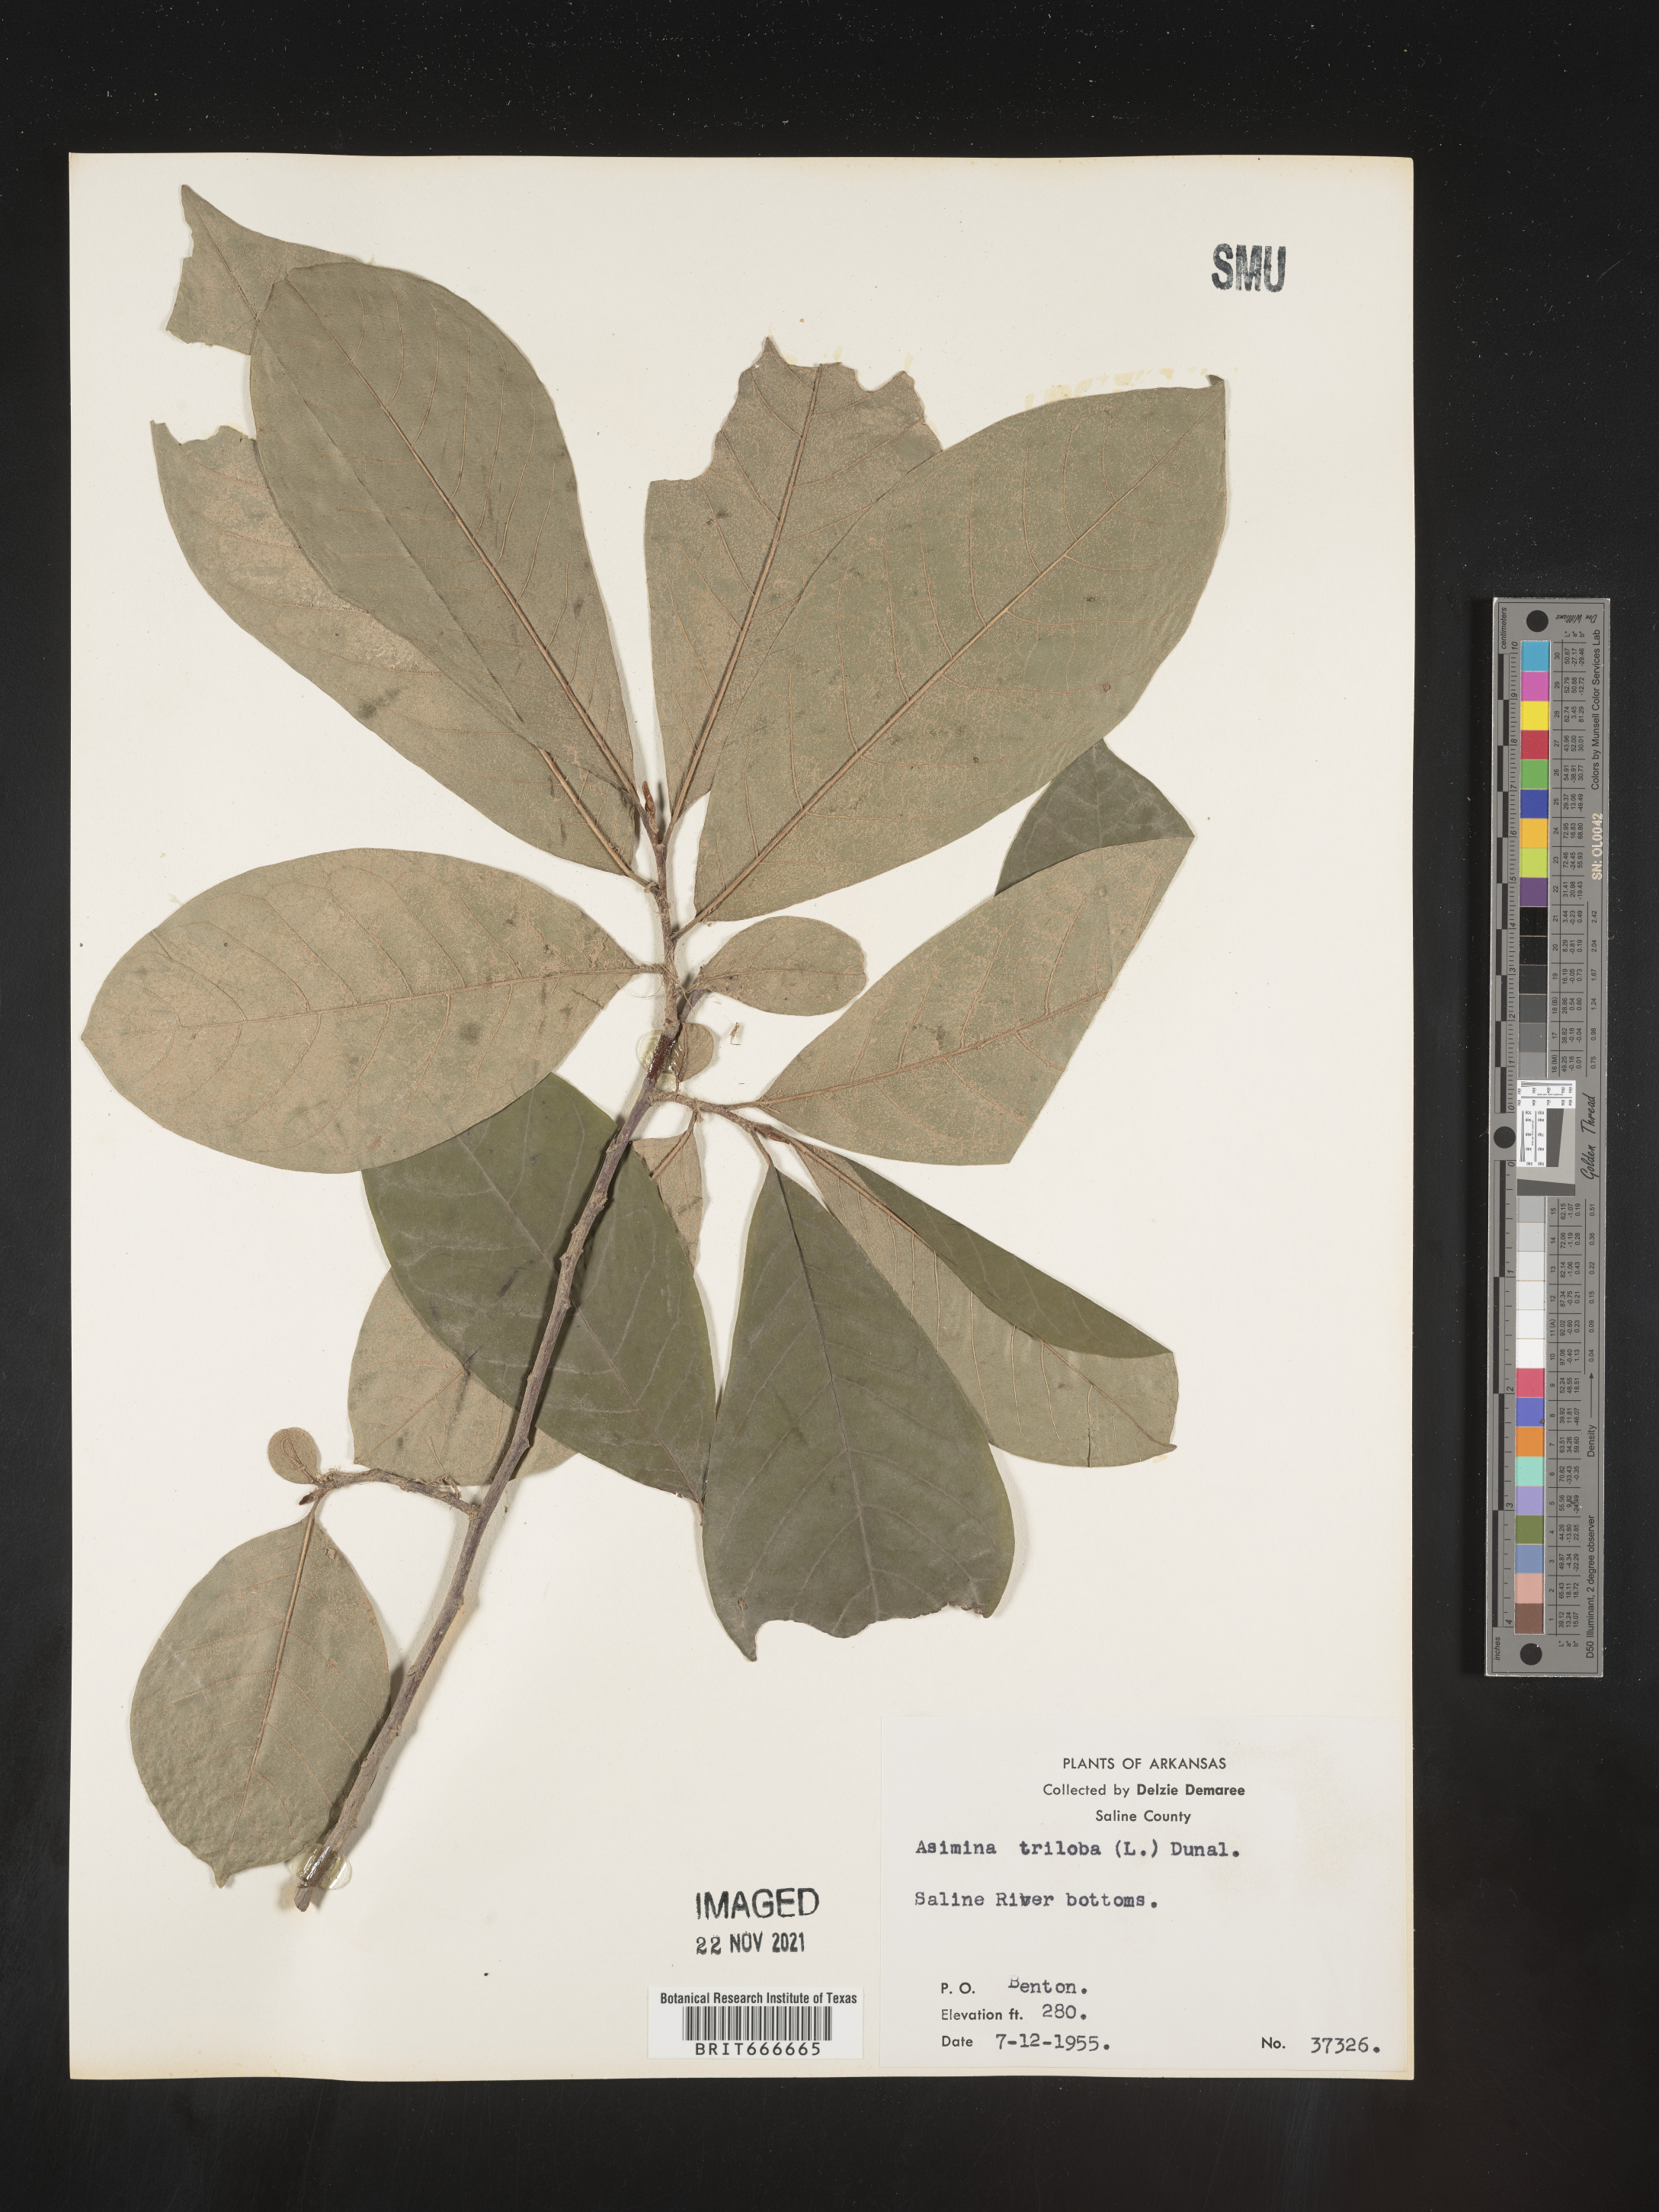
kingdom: Plantae
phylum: Tracheophyta
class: Magnoliopsida
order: Magnoliales
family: Annonaceae
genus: Asimina
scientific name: Asimina triloba
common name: Dog-banana
